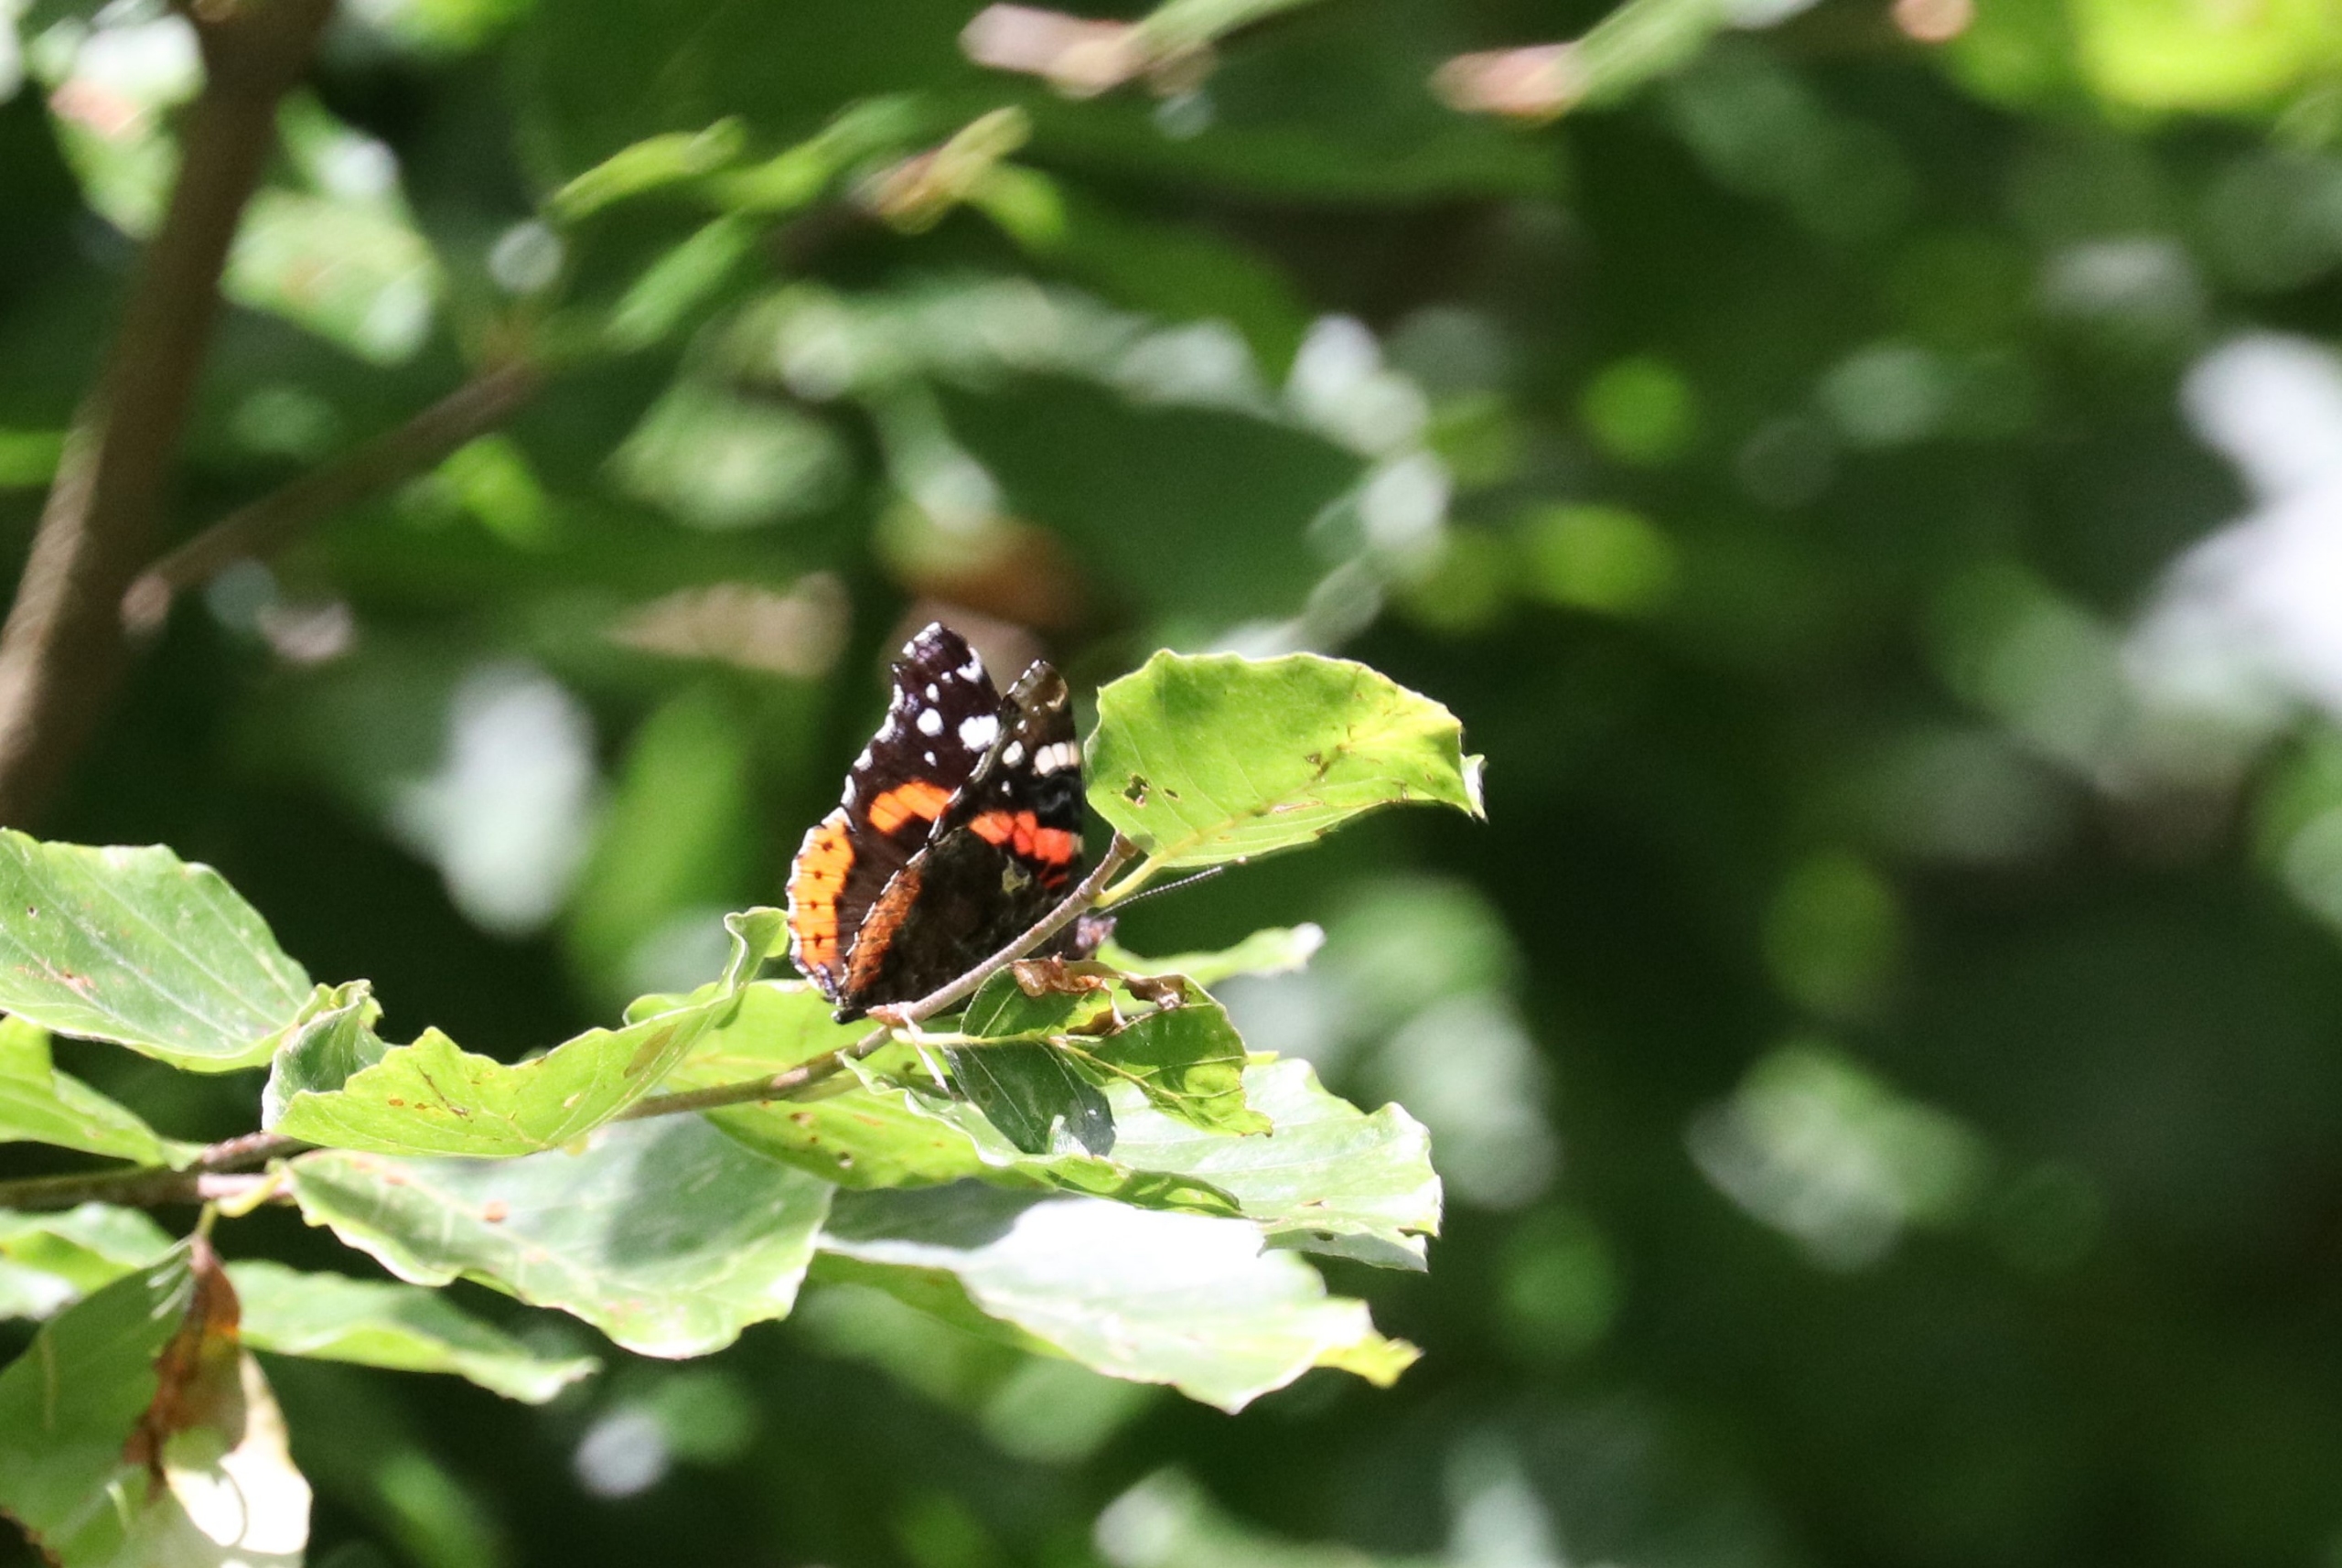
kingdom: Animalia
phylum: Arthropoda
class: Insecta
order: Lepidoptera
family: Nymphalidae
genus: Vanessa
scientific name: Vanessa atalanta
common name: Admiral
